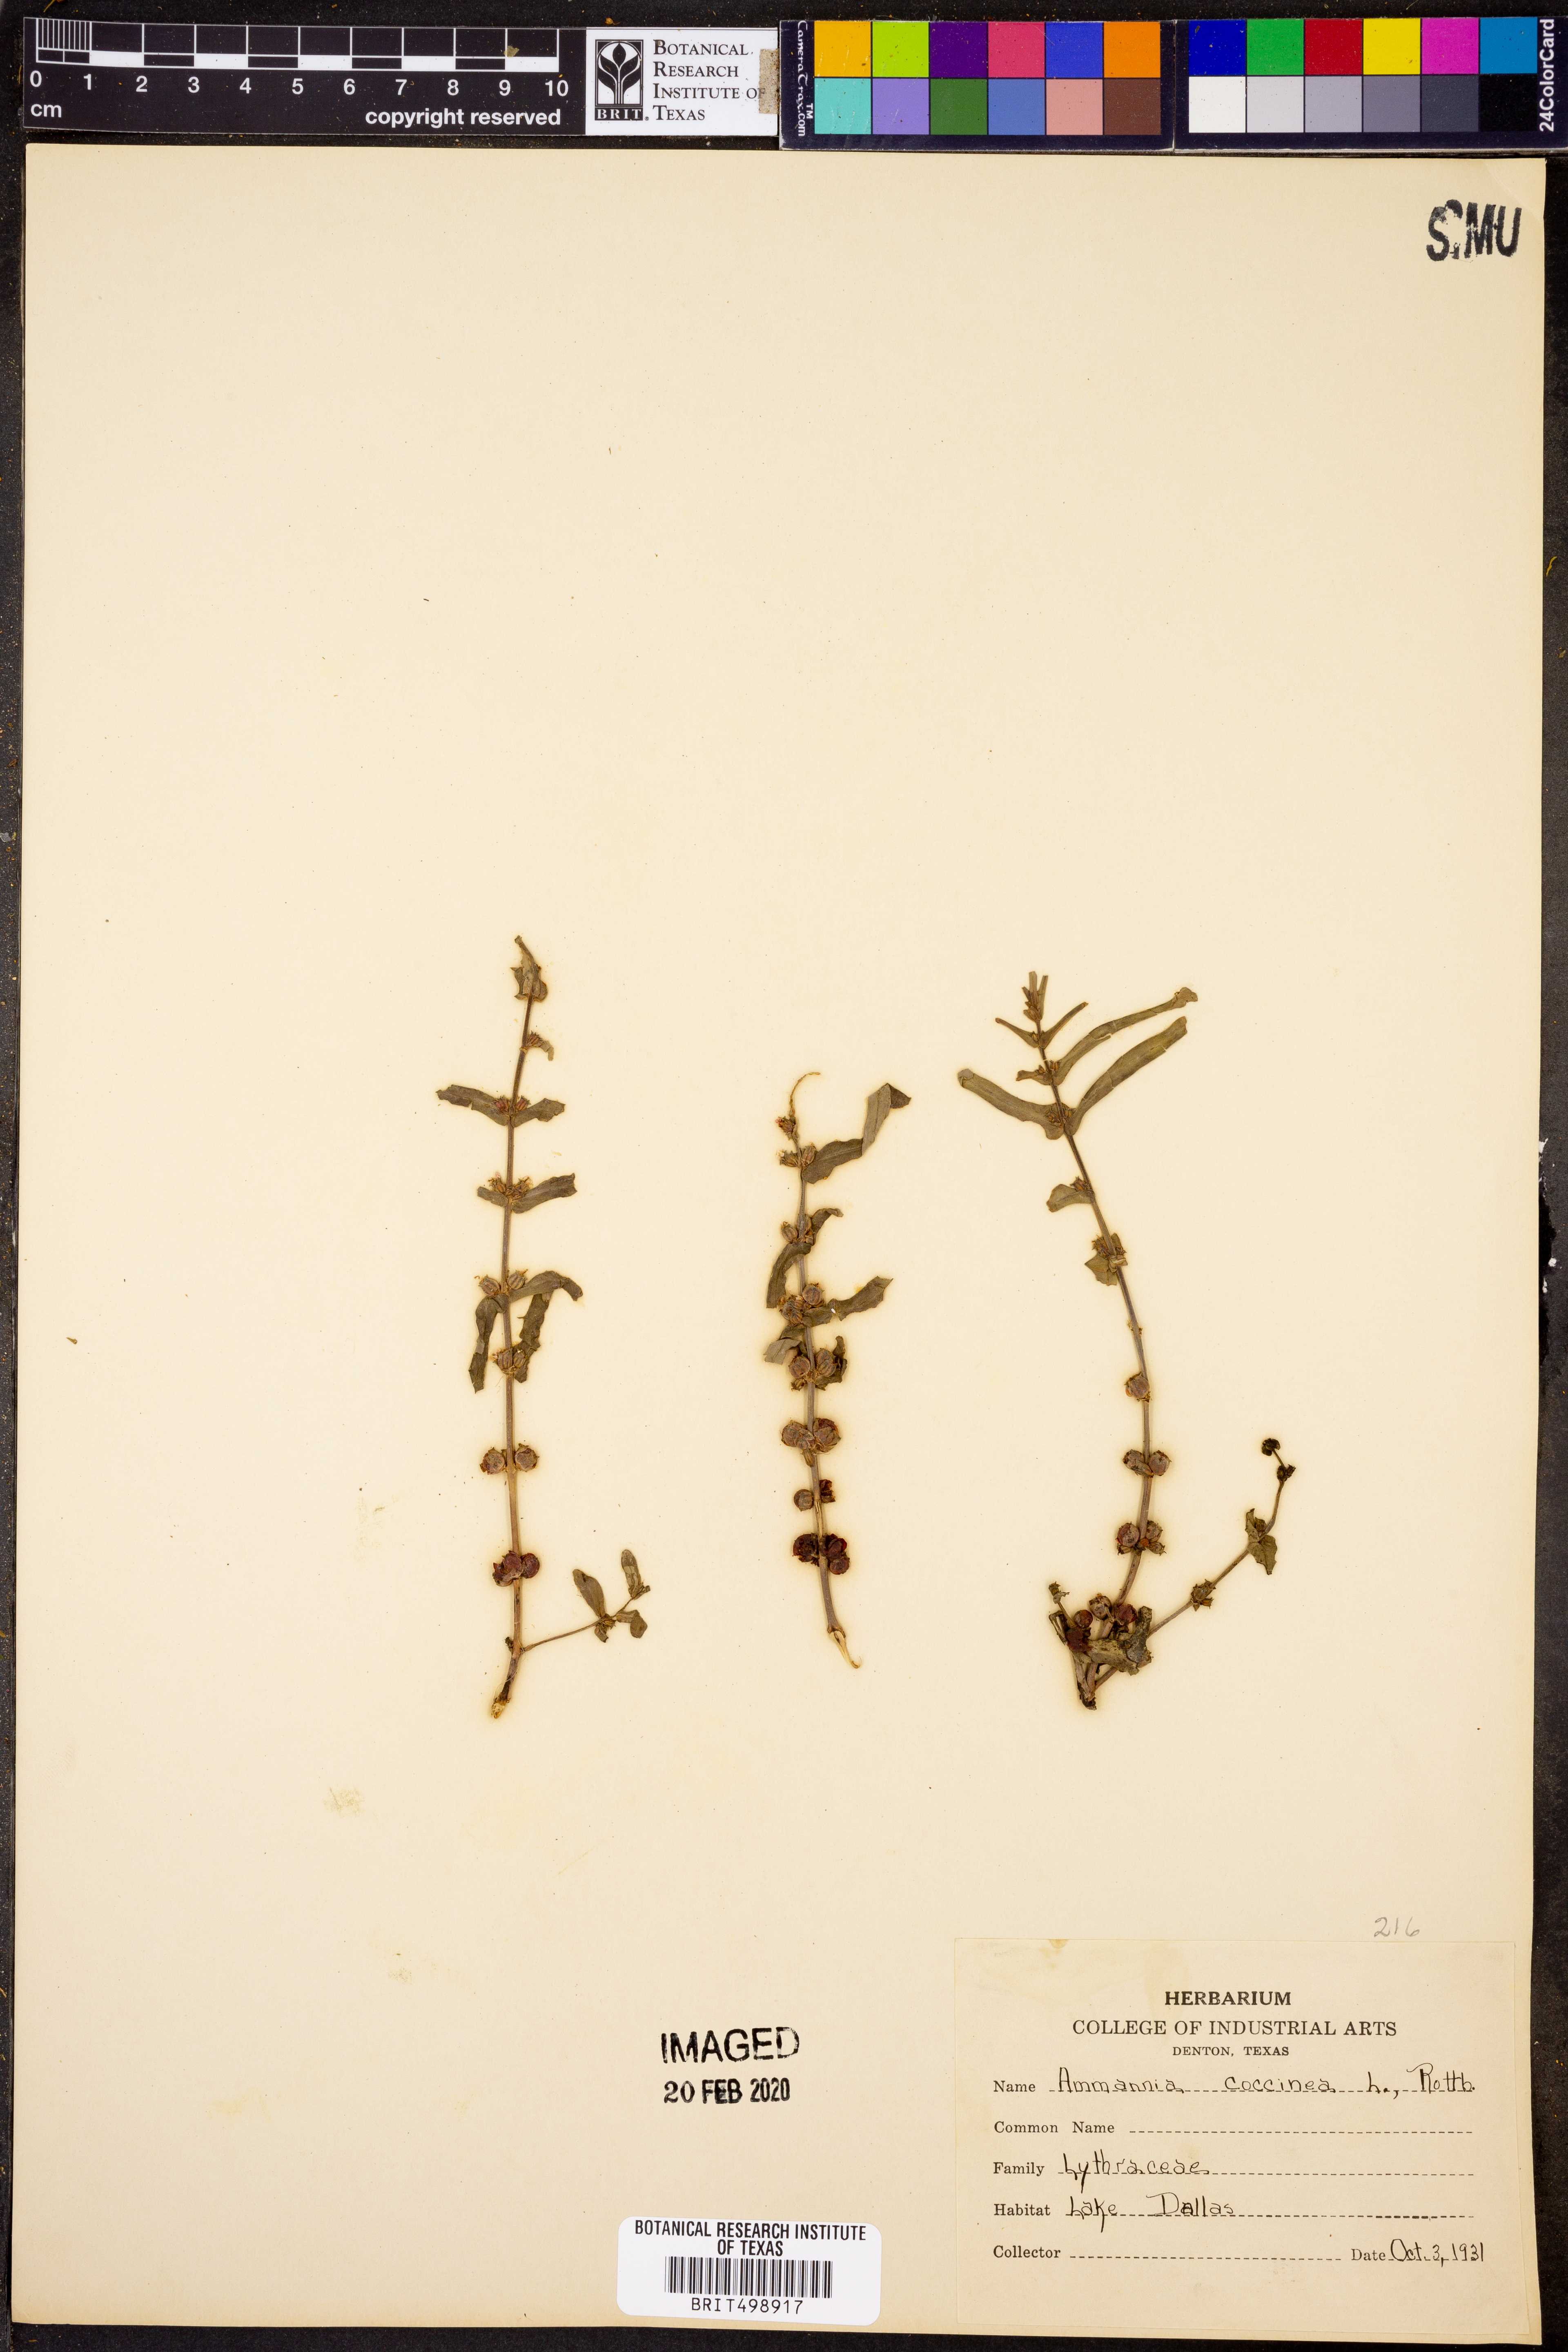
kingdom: Plantae
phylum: Tracheophyta
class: Magnoliopsida
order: Myrtales
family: Lythraceae
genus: Ammannia
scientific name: Ammannia coccinea
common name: Valley redstem
